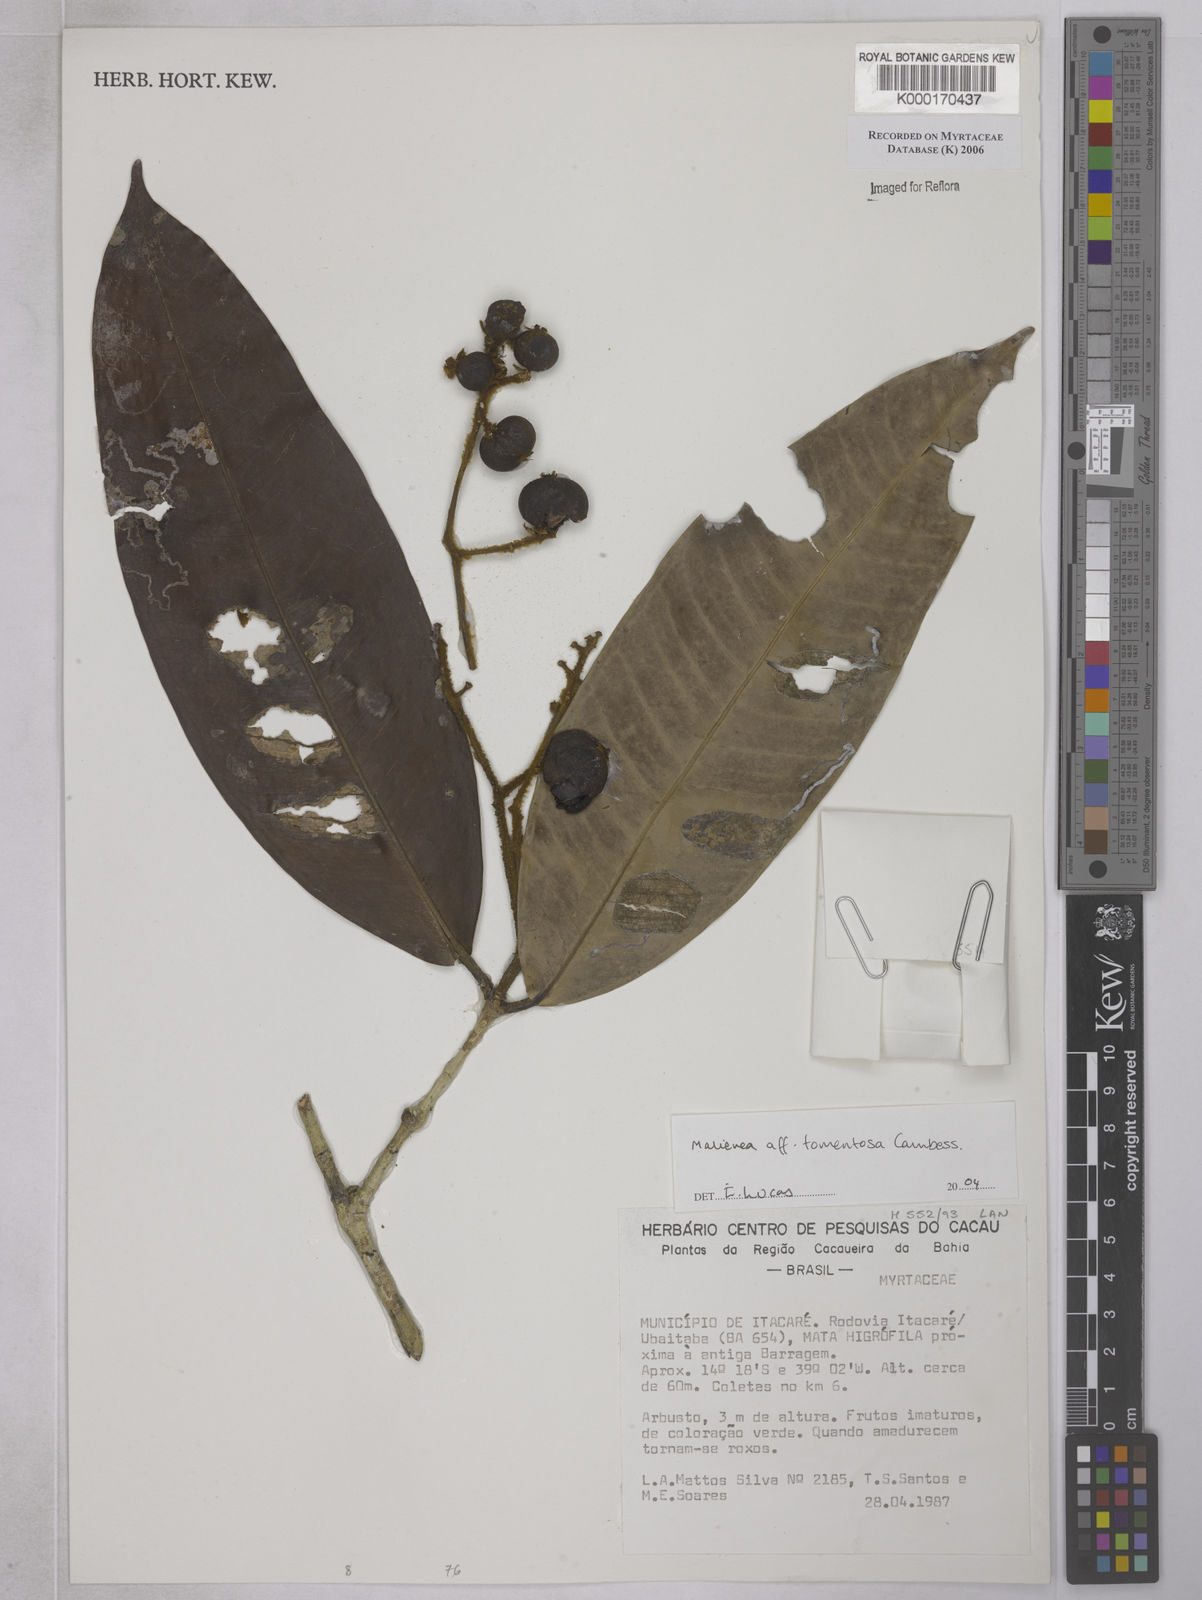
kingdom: Plantae
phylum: Tracheophyta
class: Magnoliopsida
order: Myrtales
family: Myrtaceae
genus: Myrcia
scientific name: Myrcia neotomentosa
